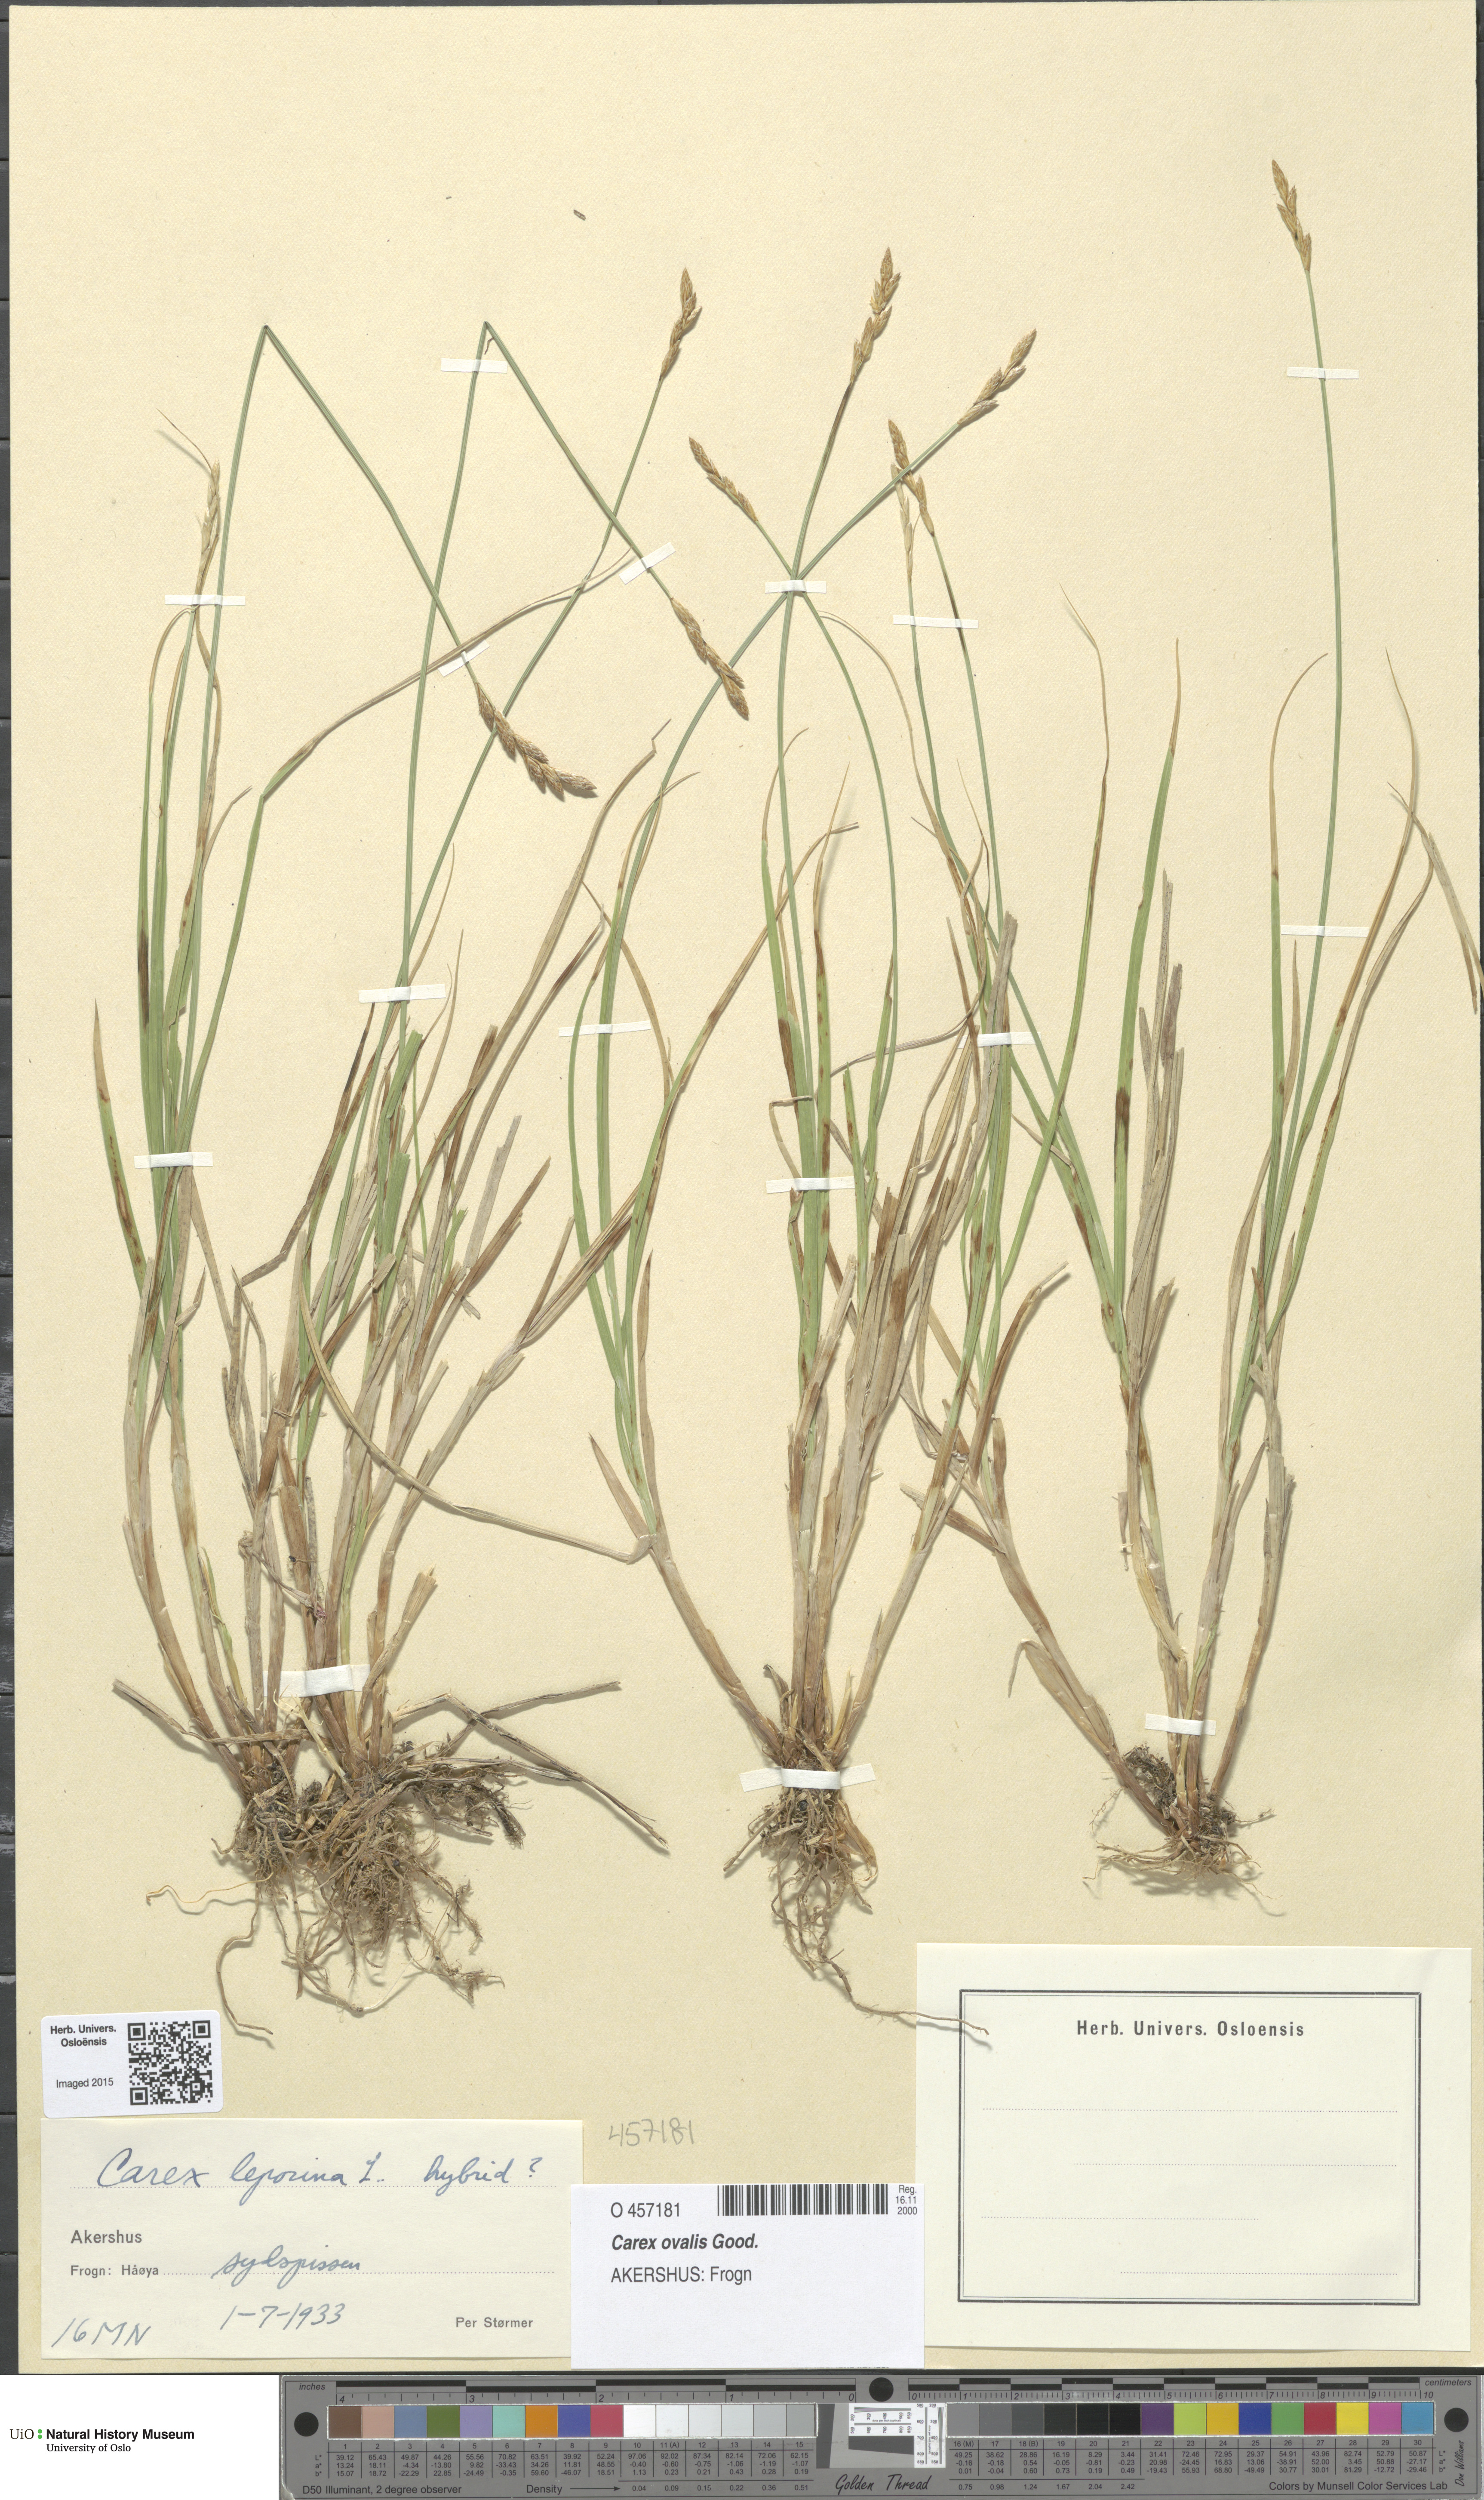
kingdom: Plantae
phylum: Tracheophyta
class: Liliopsida
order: Poales
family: Cyperaceae
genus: Carex
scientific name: Carex leporina
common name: Oval sedge
